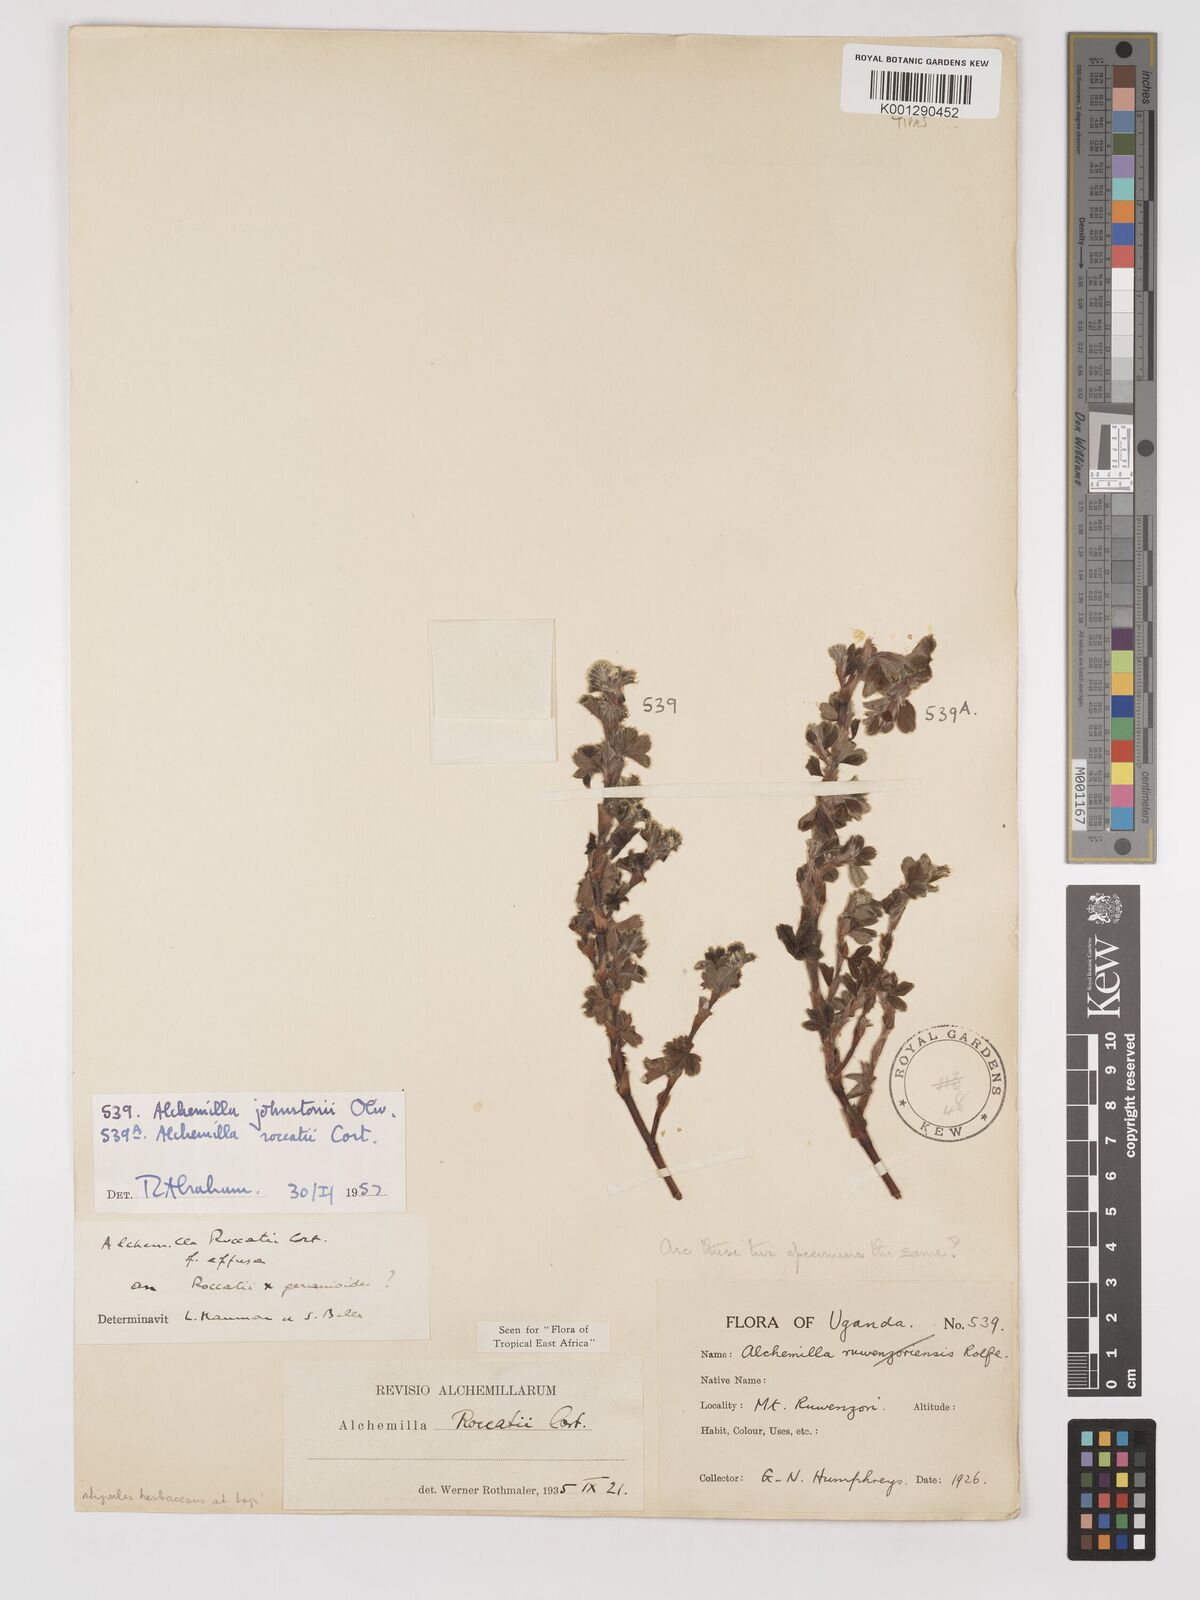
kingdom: Plantae
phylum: Tracheophyta
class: Magnoliopsida
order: Rosales
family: Rosaceae
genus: Alchemilla
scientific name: Alchemilla roccatii
